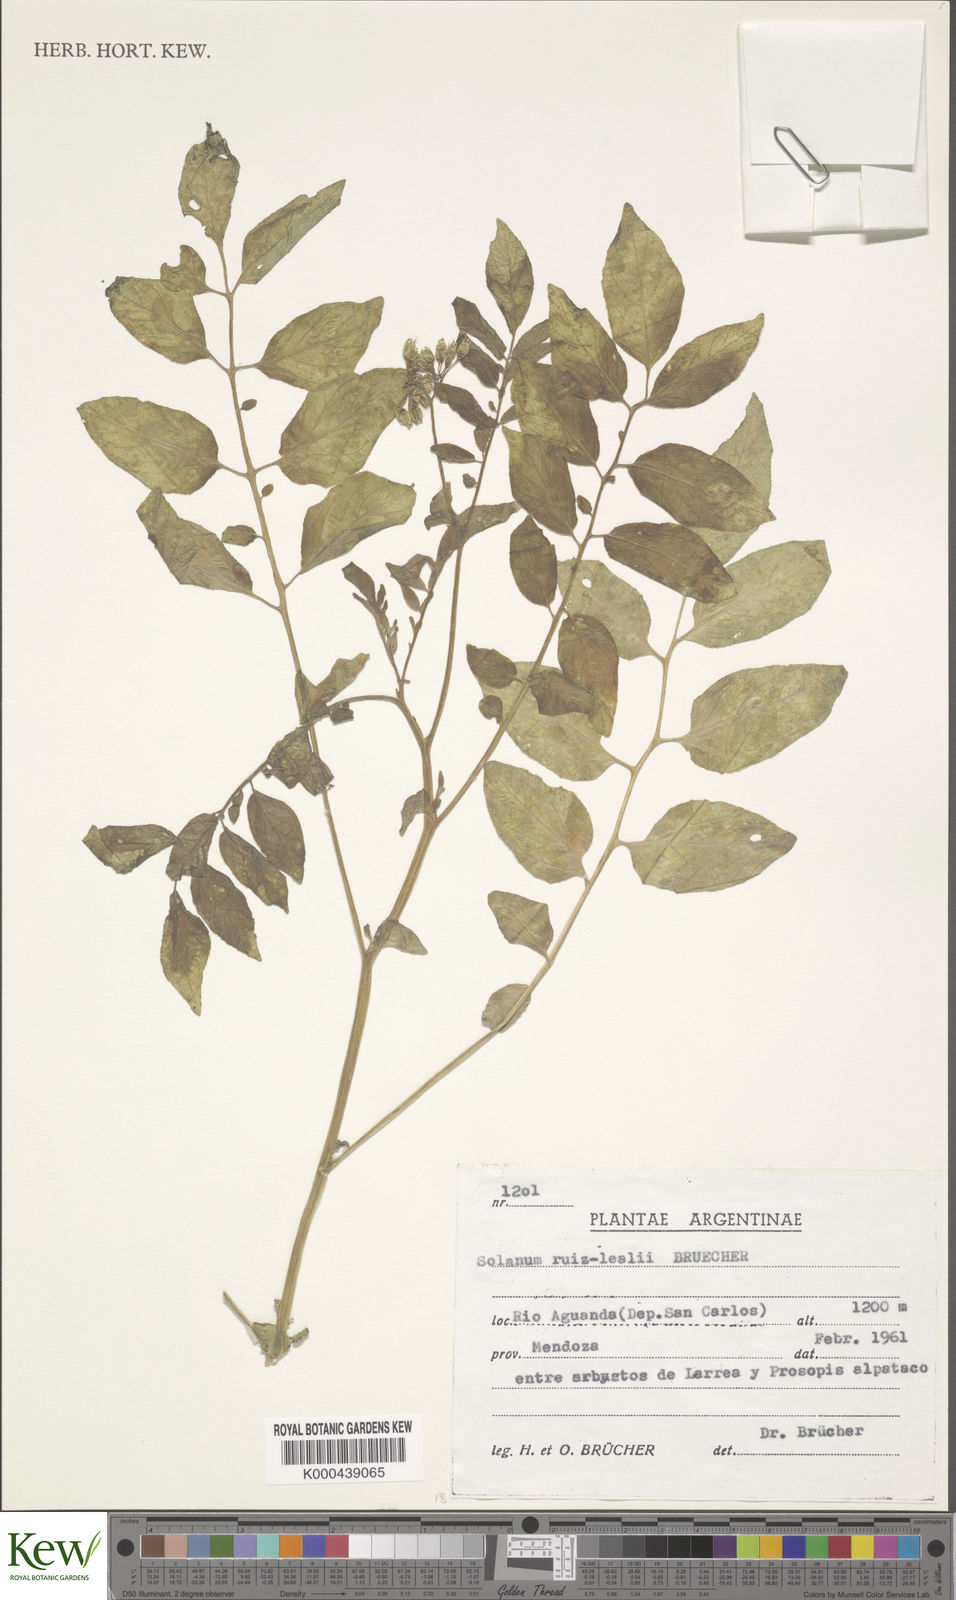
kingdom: Plantae
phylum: Tracheophyta
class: Magnoliopsida
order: Solanales
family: Solanaceae
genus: Solanum
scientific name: Solanum
